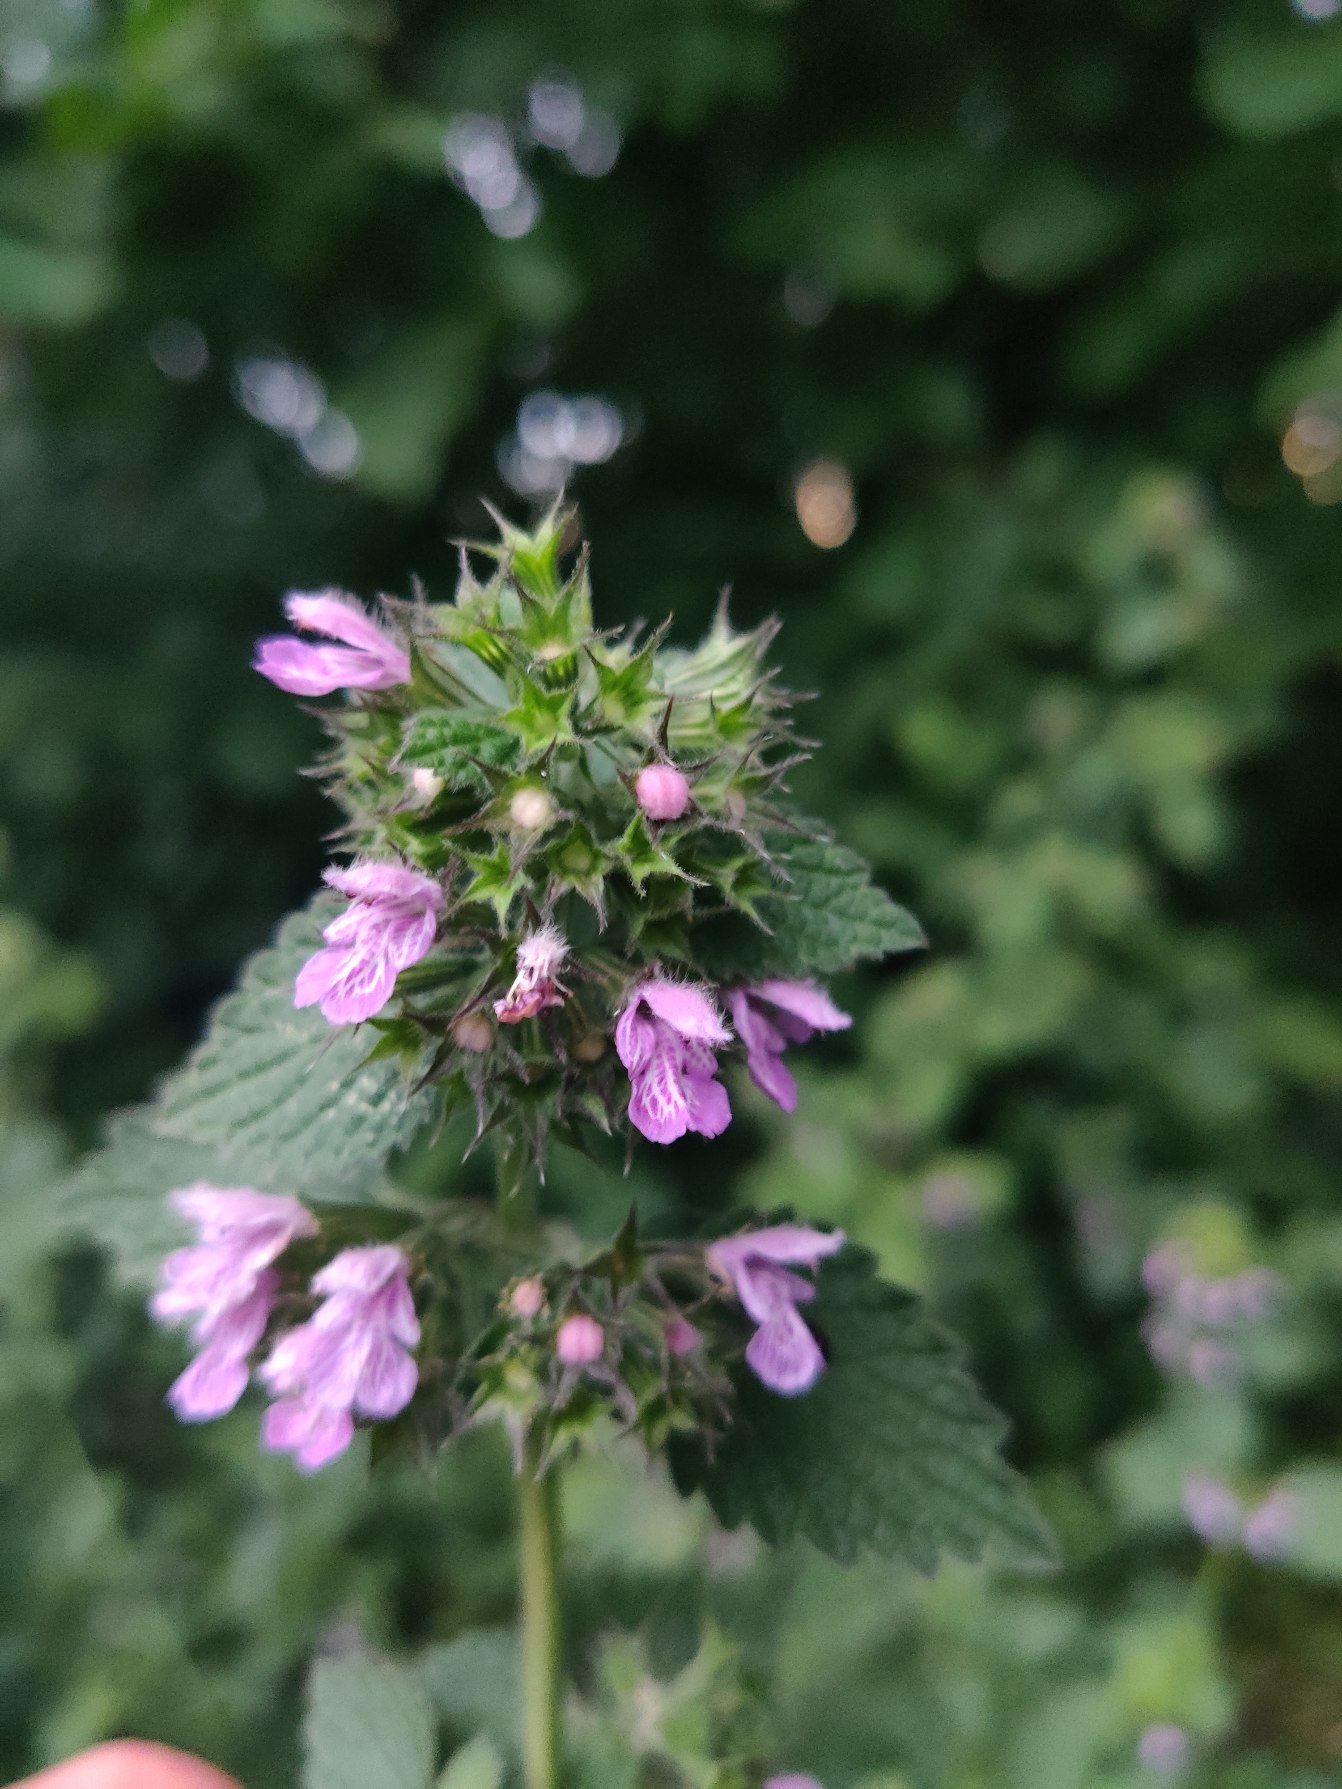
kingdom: Plantae
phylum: Tracheophyta
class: Magnoliopsida
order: Lamiales
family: Lamiaceae
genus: Ballota
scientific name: Ballota nigra
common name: Tandbæger
